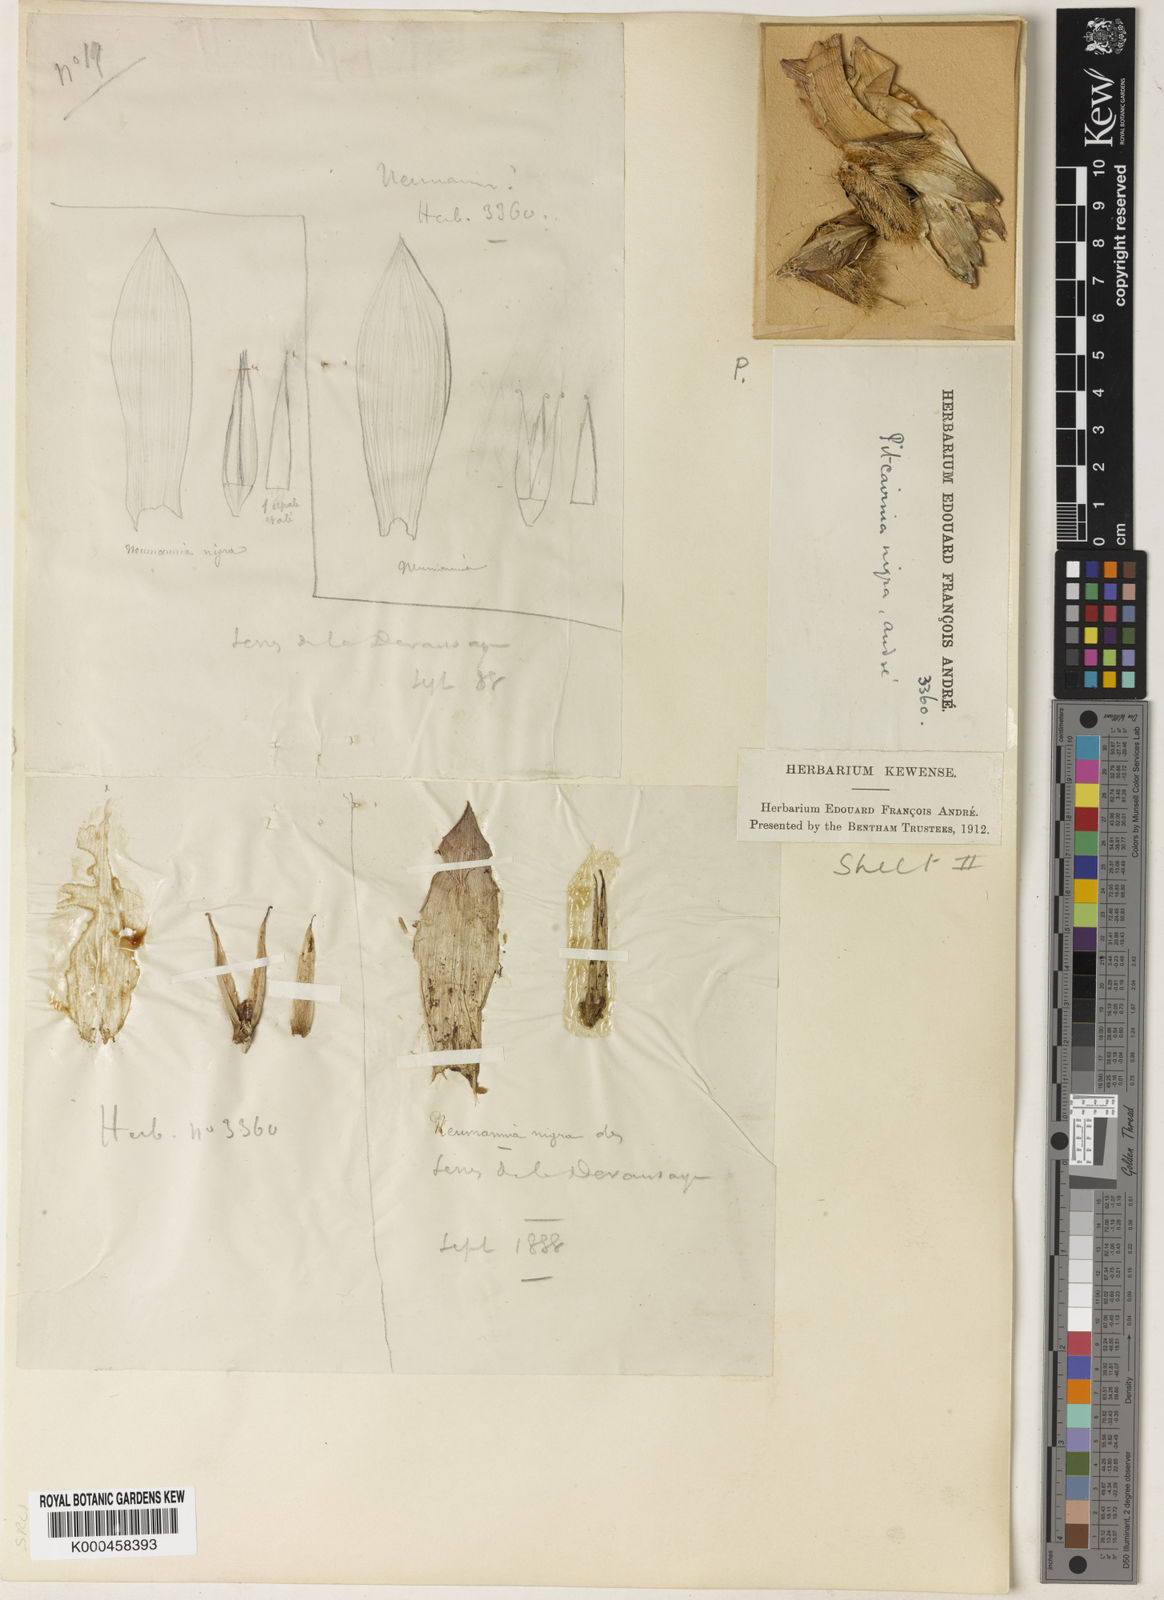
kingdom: Plantae
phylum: Tracheophyta
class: Liliopsida
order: Poales
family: Bromeliaceae
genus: Pitcairnia
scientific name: Pitcairnia
